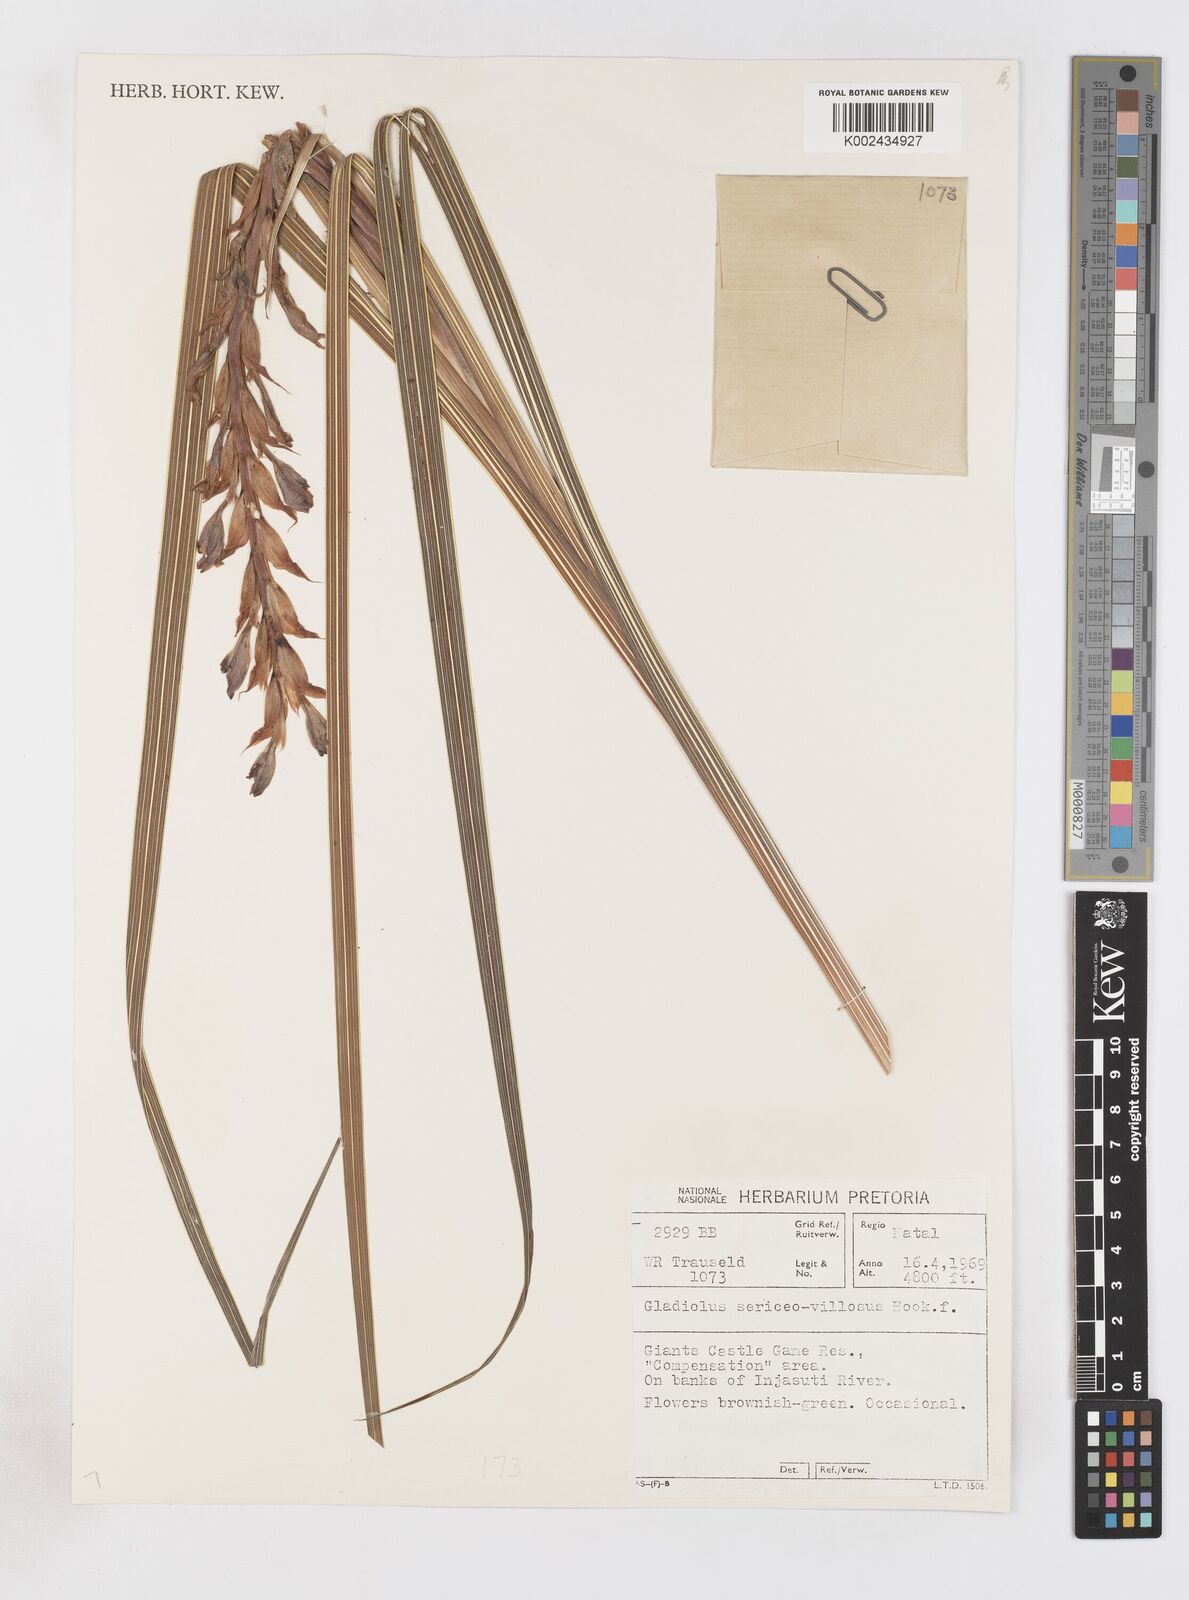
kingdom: Plantae
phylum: Tracheophyta
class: Liliopsida
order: Asparagales
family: Iridaceae
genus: Gladiolus
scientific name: Gladiolus sericeovillosus
